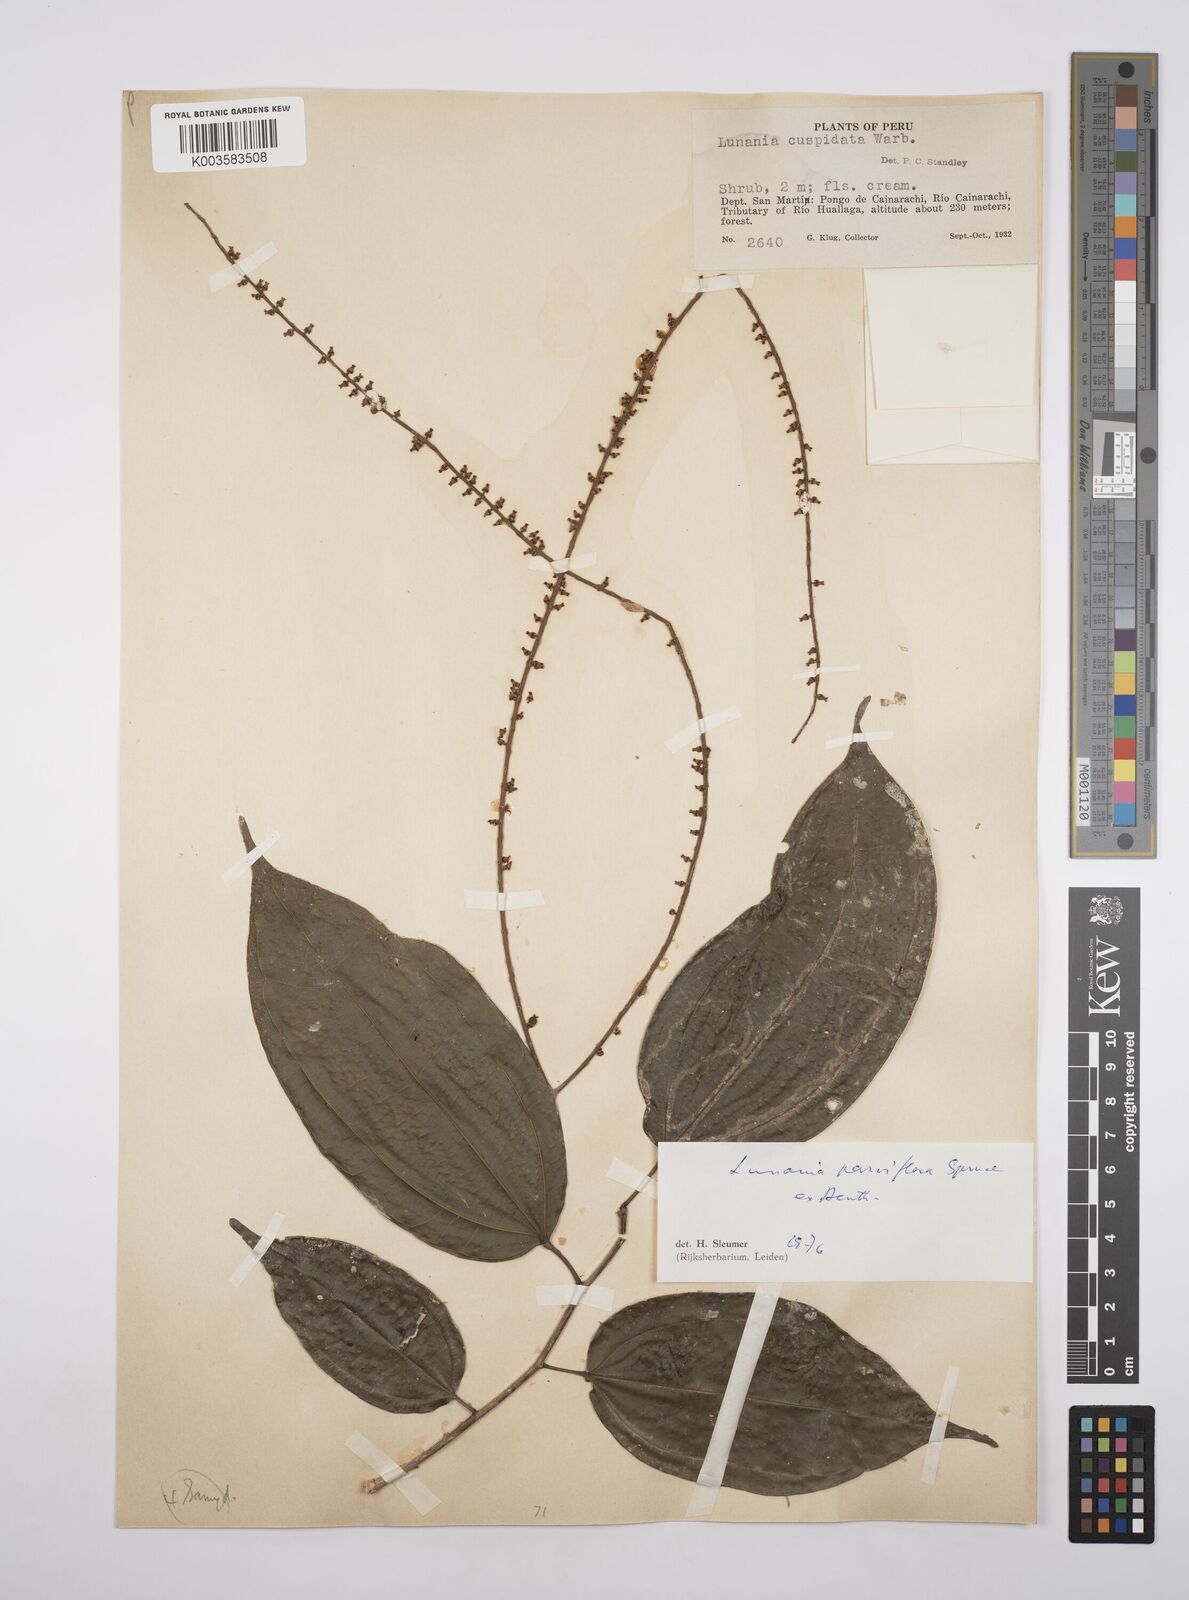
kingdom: Plantae
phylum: Tracheophyta
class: Magnoliopsida
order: Malpighiales
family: Salicaceae
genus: Lunania
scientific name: Lunania parviflora
